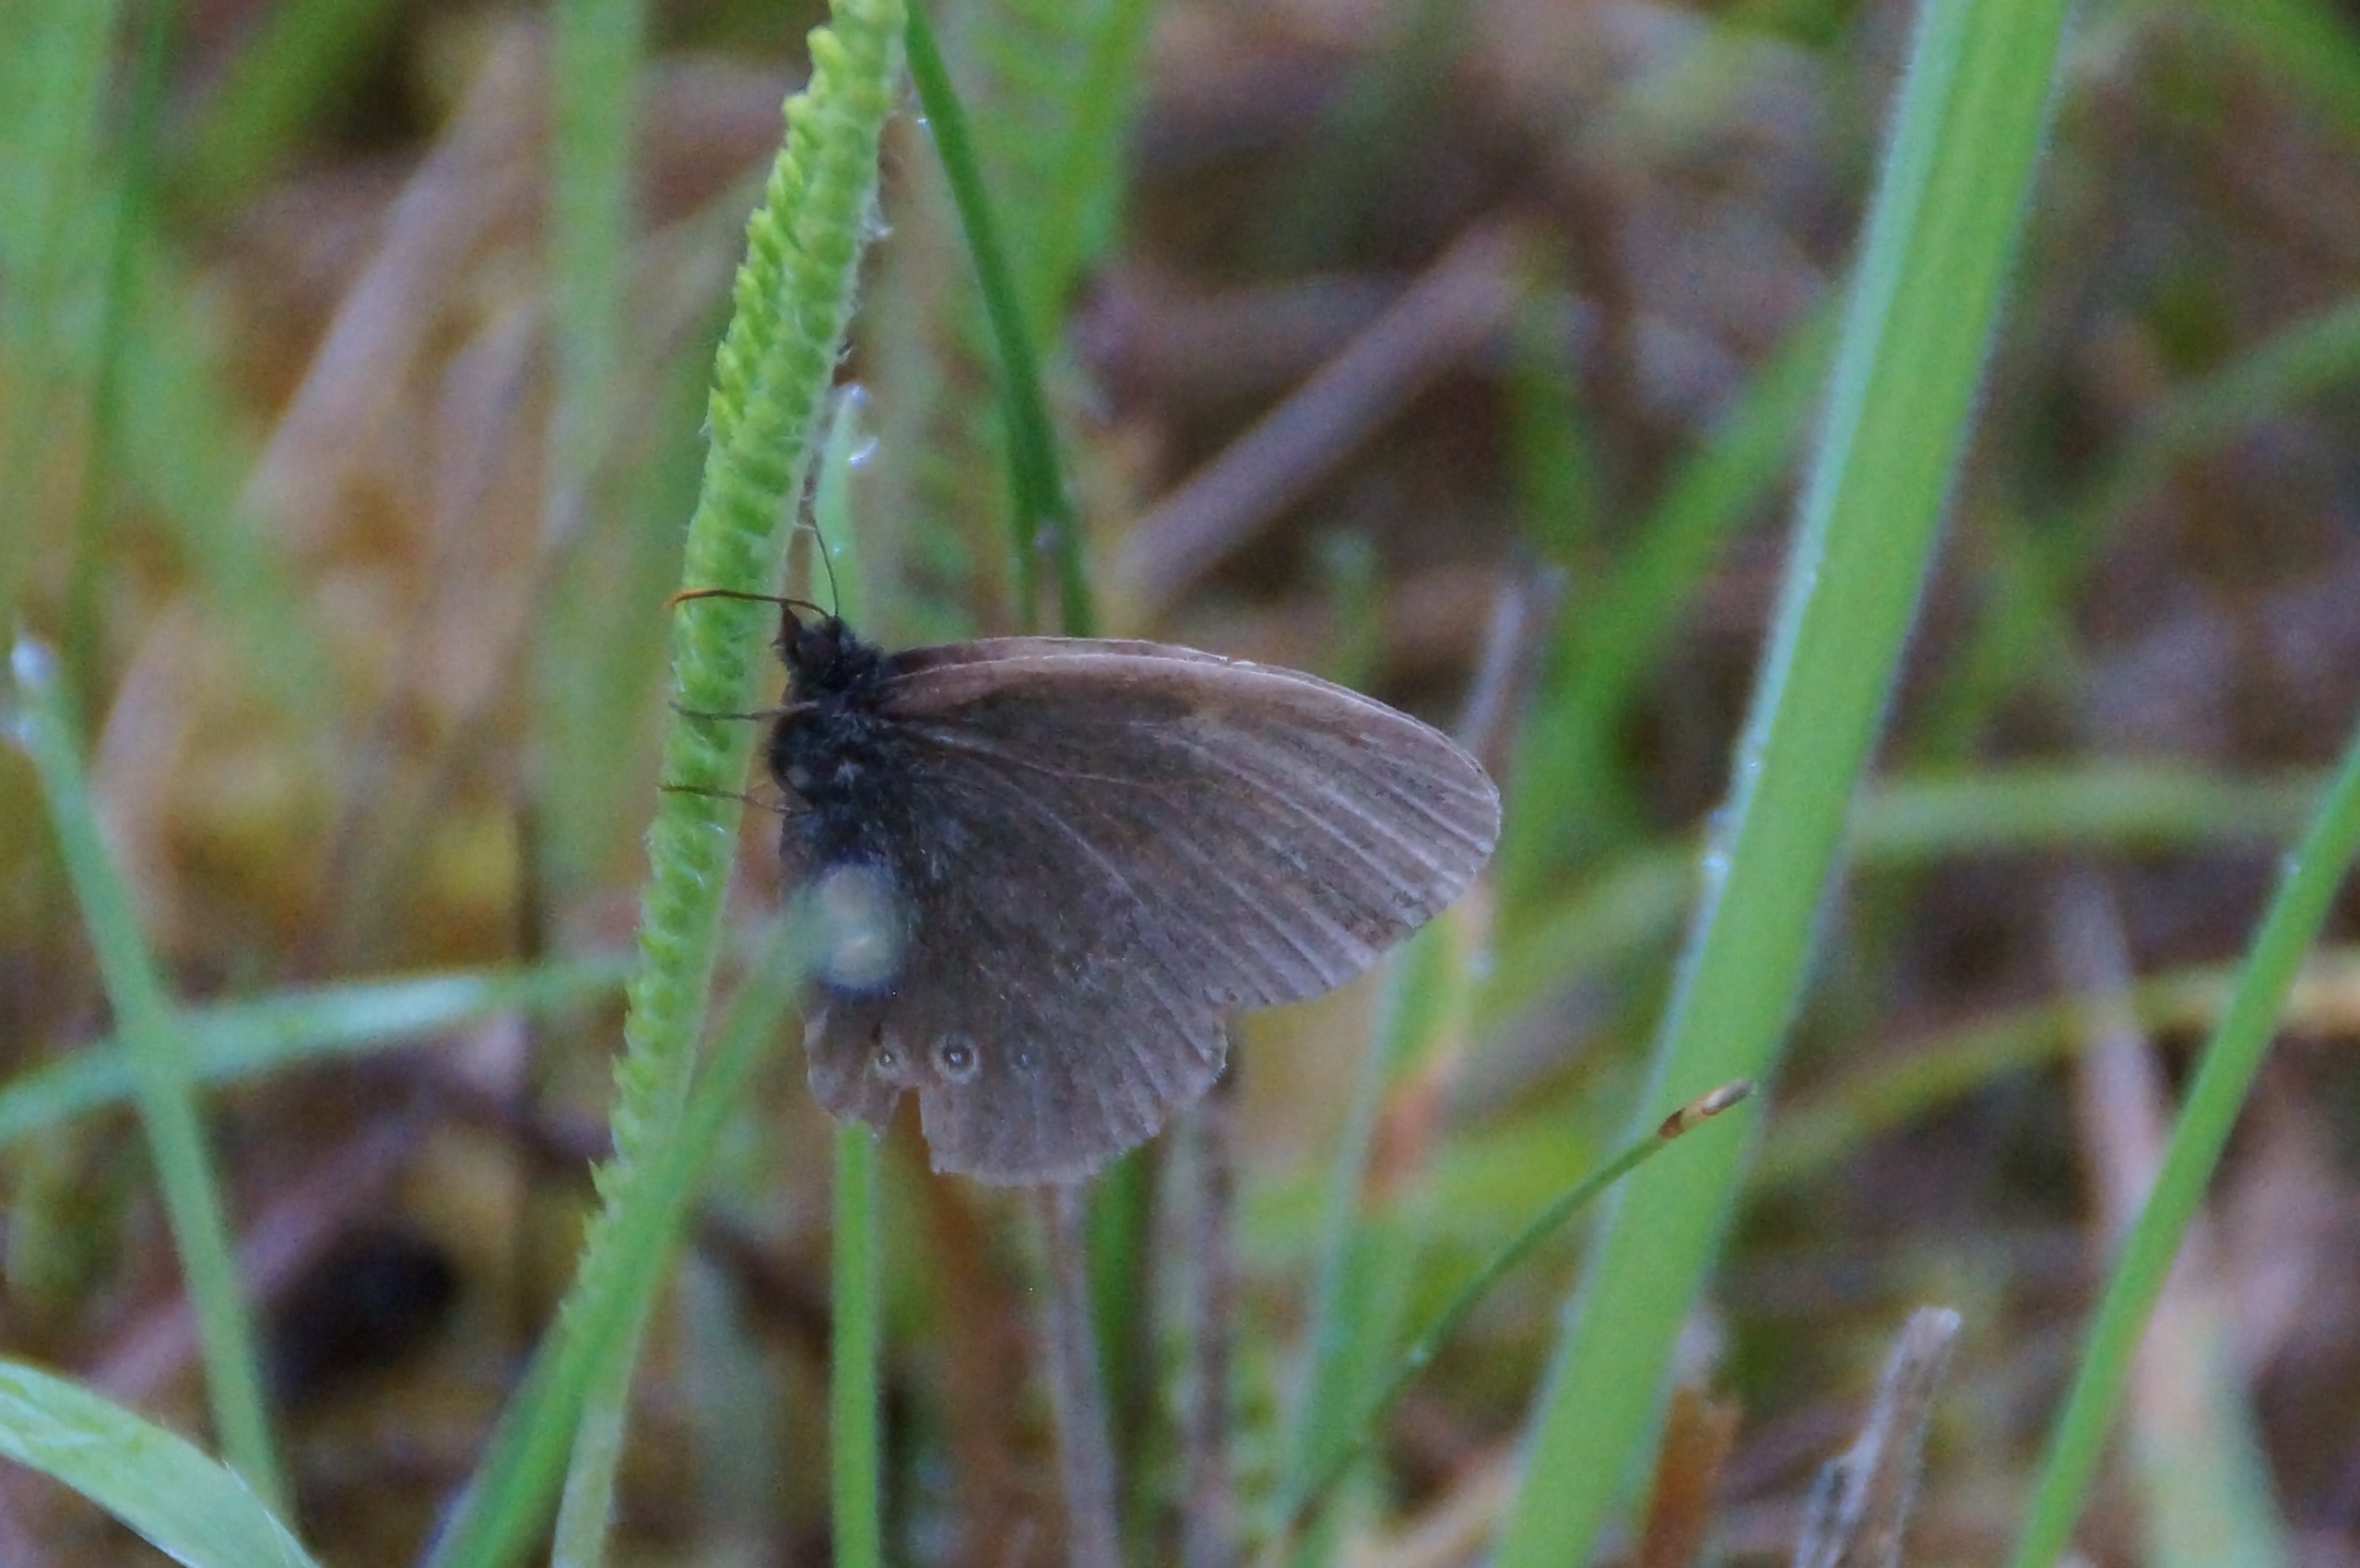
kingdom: Animalia
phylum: Arthropoda
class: Insecta
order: Lepidoptera
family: Nymphalidae
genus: Aphantopus
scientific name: Aphantopus hyperantus
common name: Engrandøje
